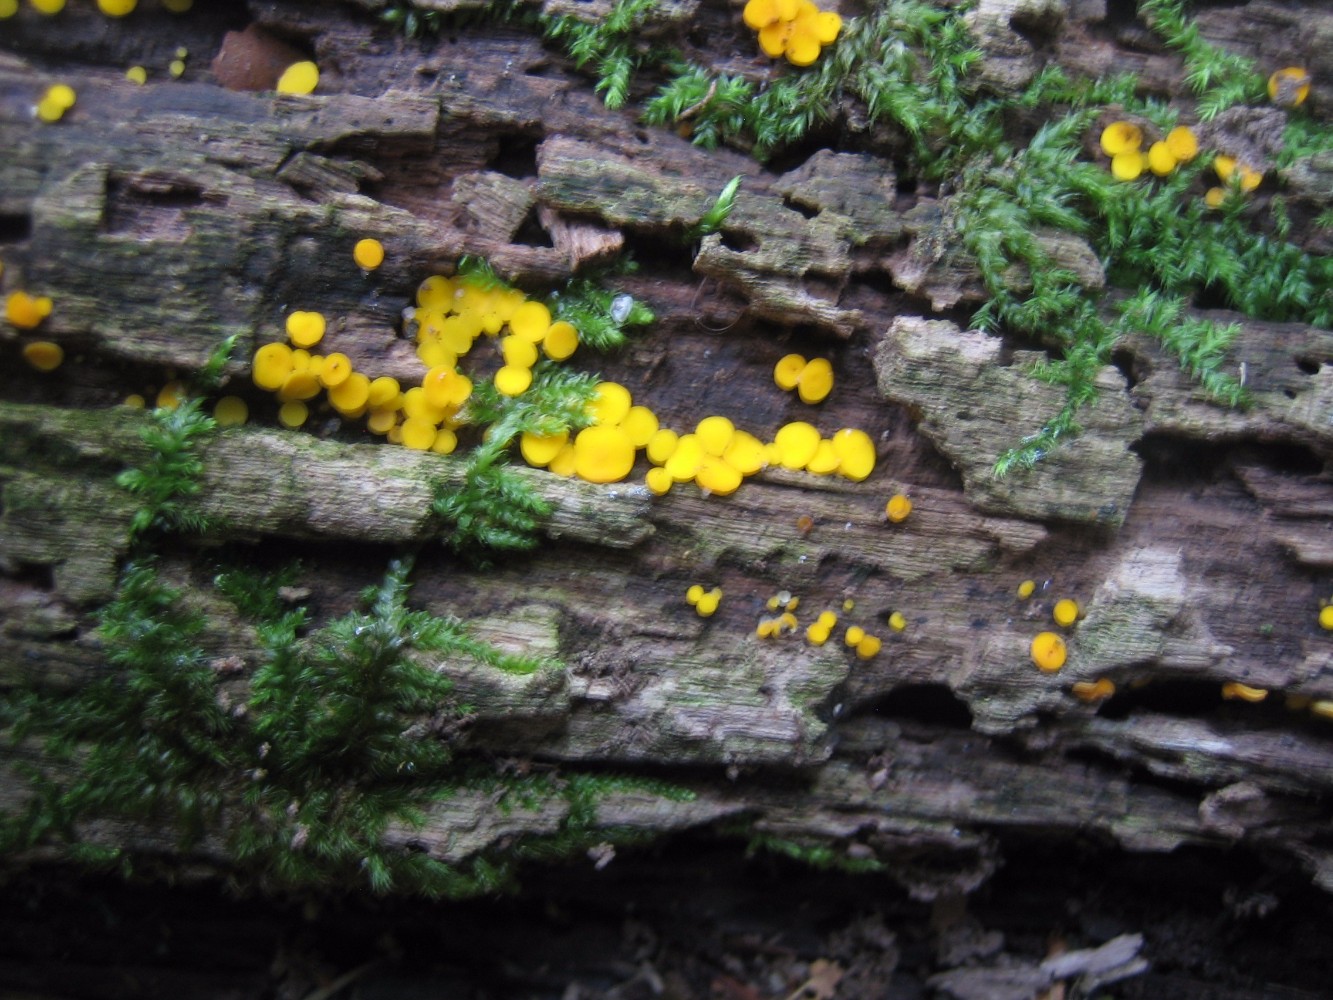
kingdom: Fungi
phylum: Ascomycota
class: Leotiomycetes
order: Helotiales
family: Pezizellaceae
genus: Calycina
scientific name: Calycina citrina
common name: almindelig gulskive
